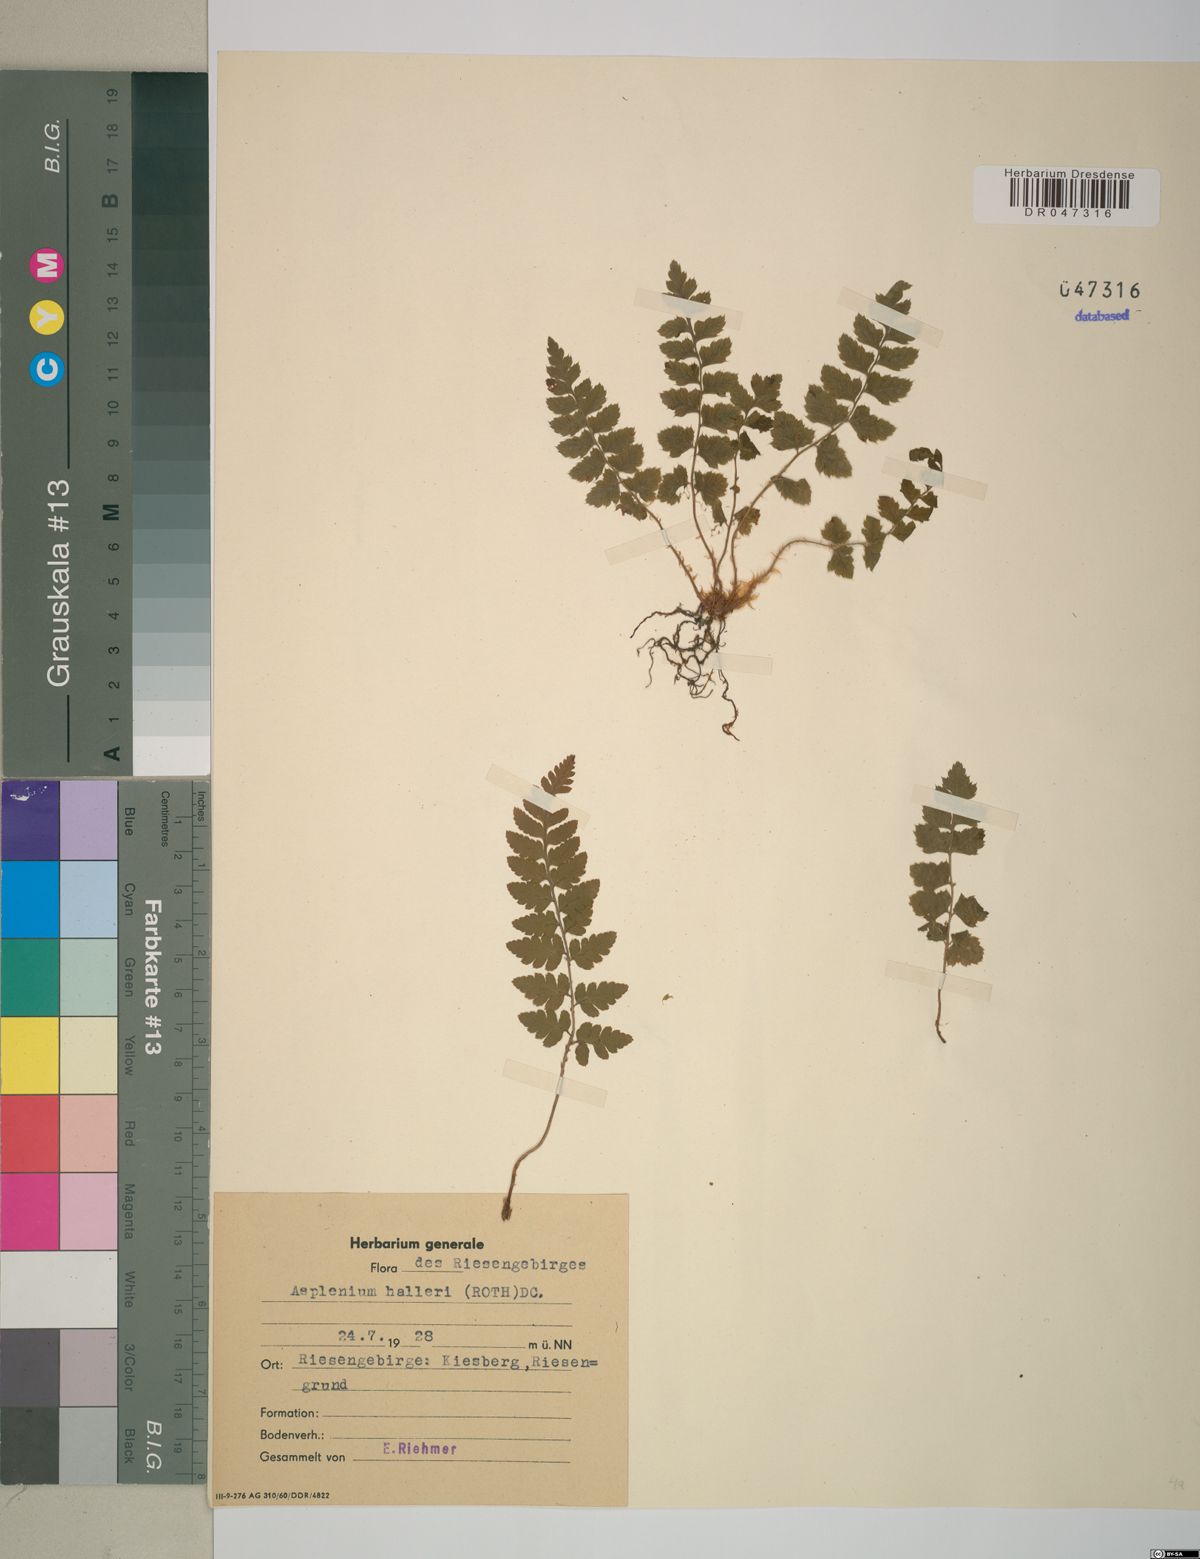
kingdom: Plantae
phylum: Tracheophyta
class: Polypodiopsida
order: Polypodiales
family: Aspleniaceae
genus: Asplenium
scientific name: Asplenium fontanum
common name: Fountain spleenwort
